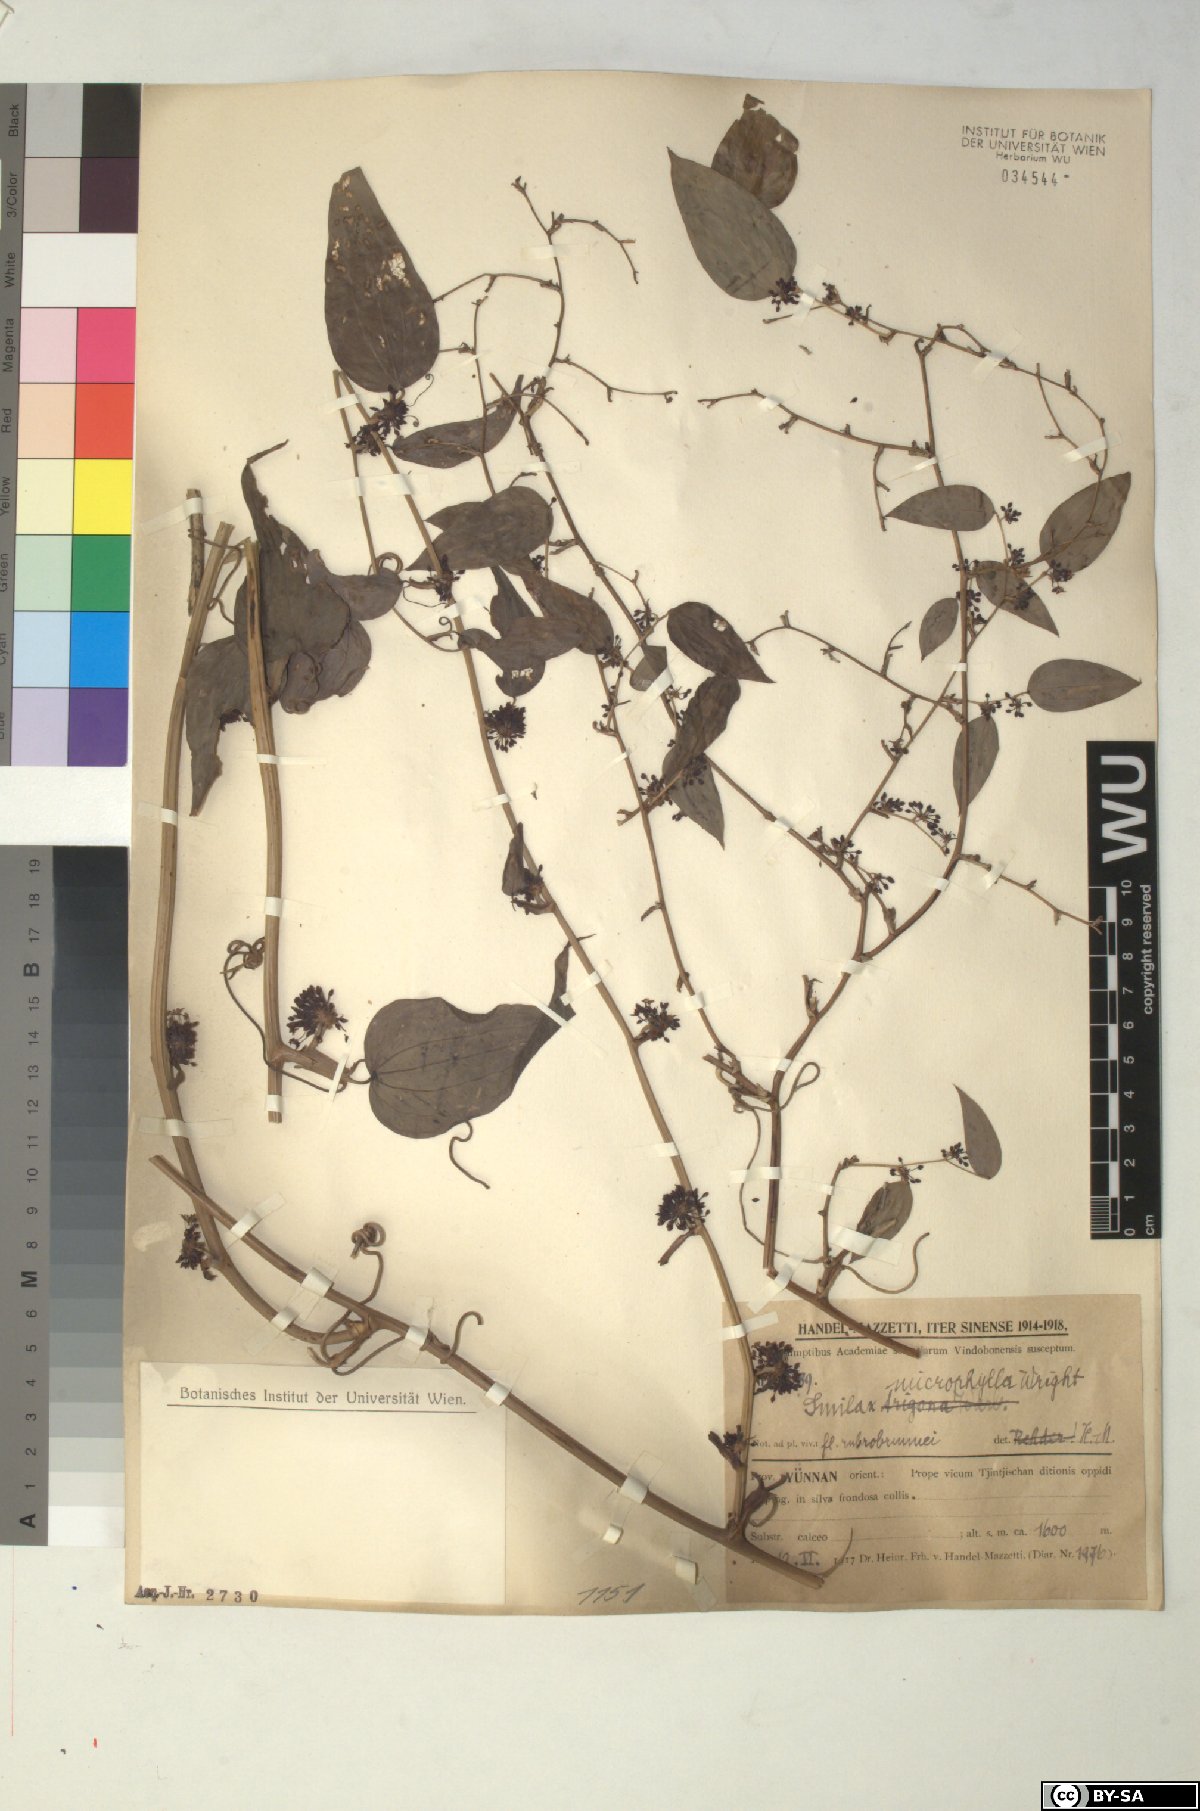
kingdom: Plantae
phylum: Tracheophyta
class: Liliopsida
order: Liliales
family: Smilacaceae
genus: Smilax
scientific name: Smilax microphylla
